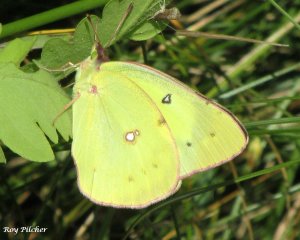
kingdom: Animalia
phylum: Arthropoda
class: Insecta
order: Lepidoptera
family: Pieridae
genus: Colias
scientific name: Colias eurytheme
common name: Orange Sulphur
